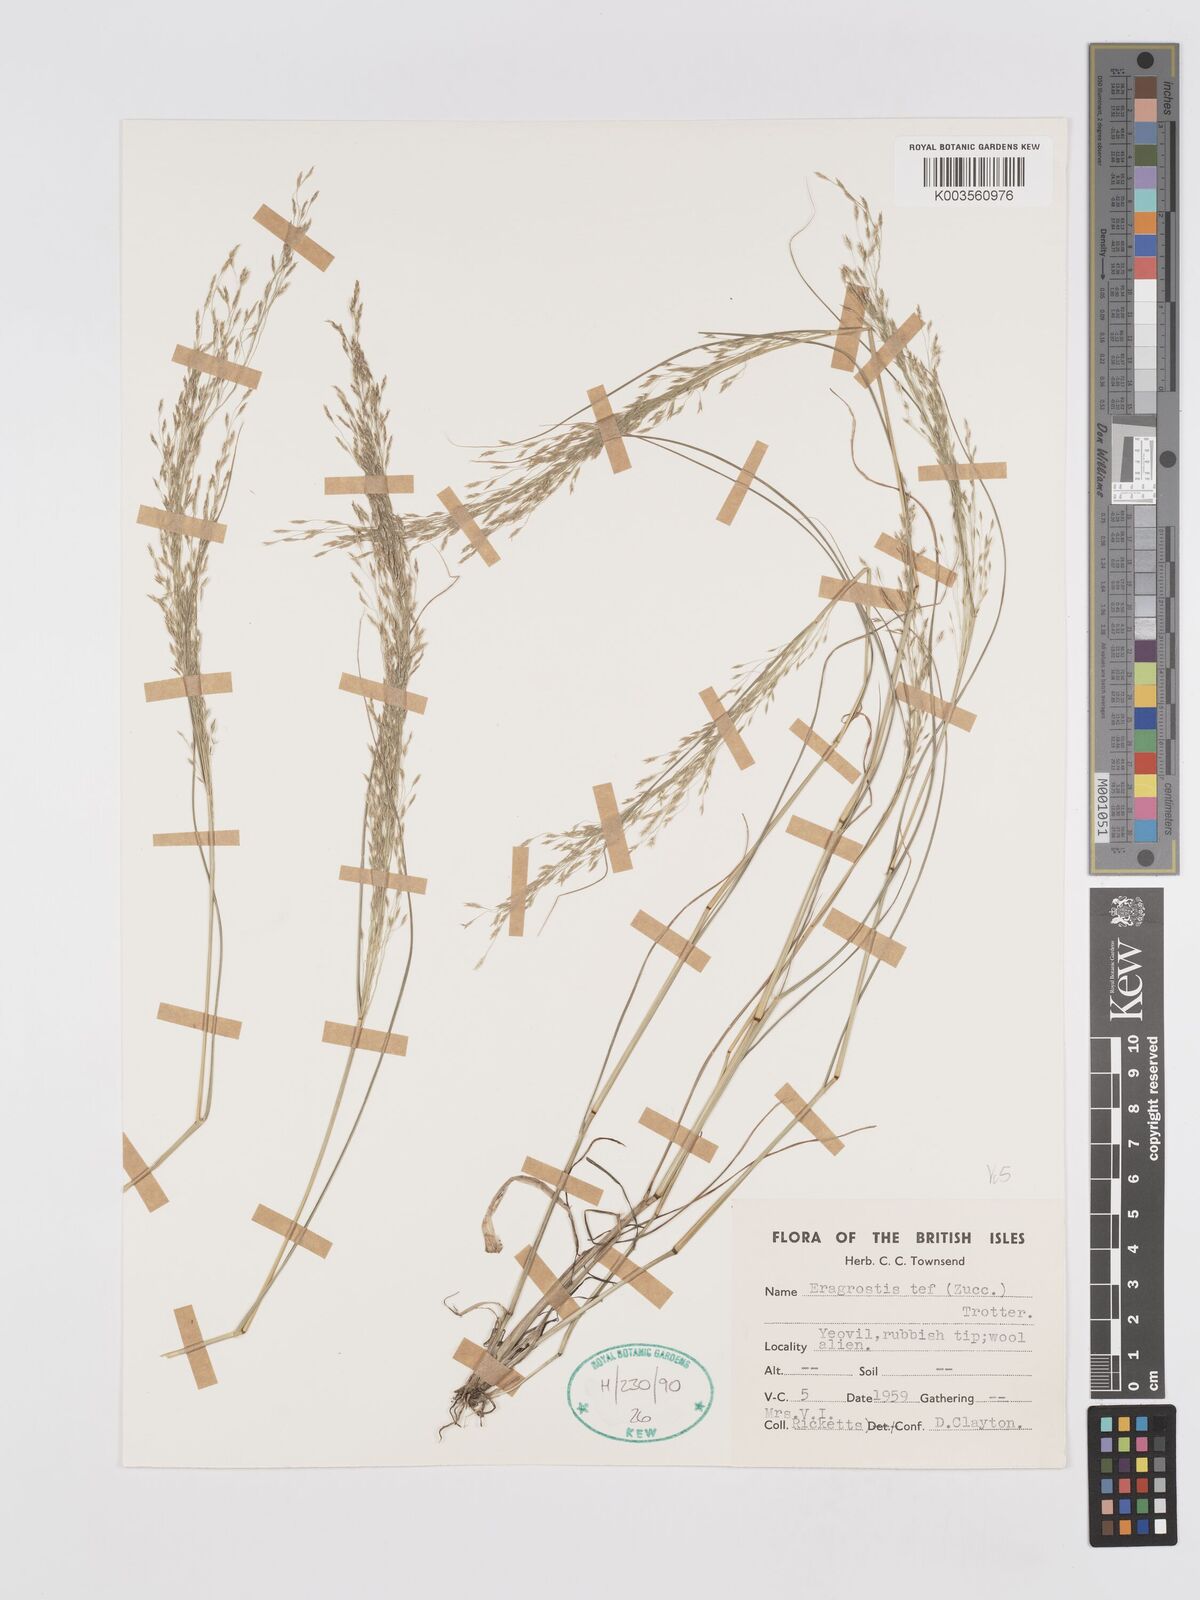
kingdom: Plantae
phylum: Tracheophyta
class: Liliopsida
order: Poales
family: Poaceae
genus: Eragrostis
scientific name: Eragrostis tef
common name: Teff
